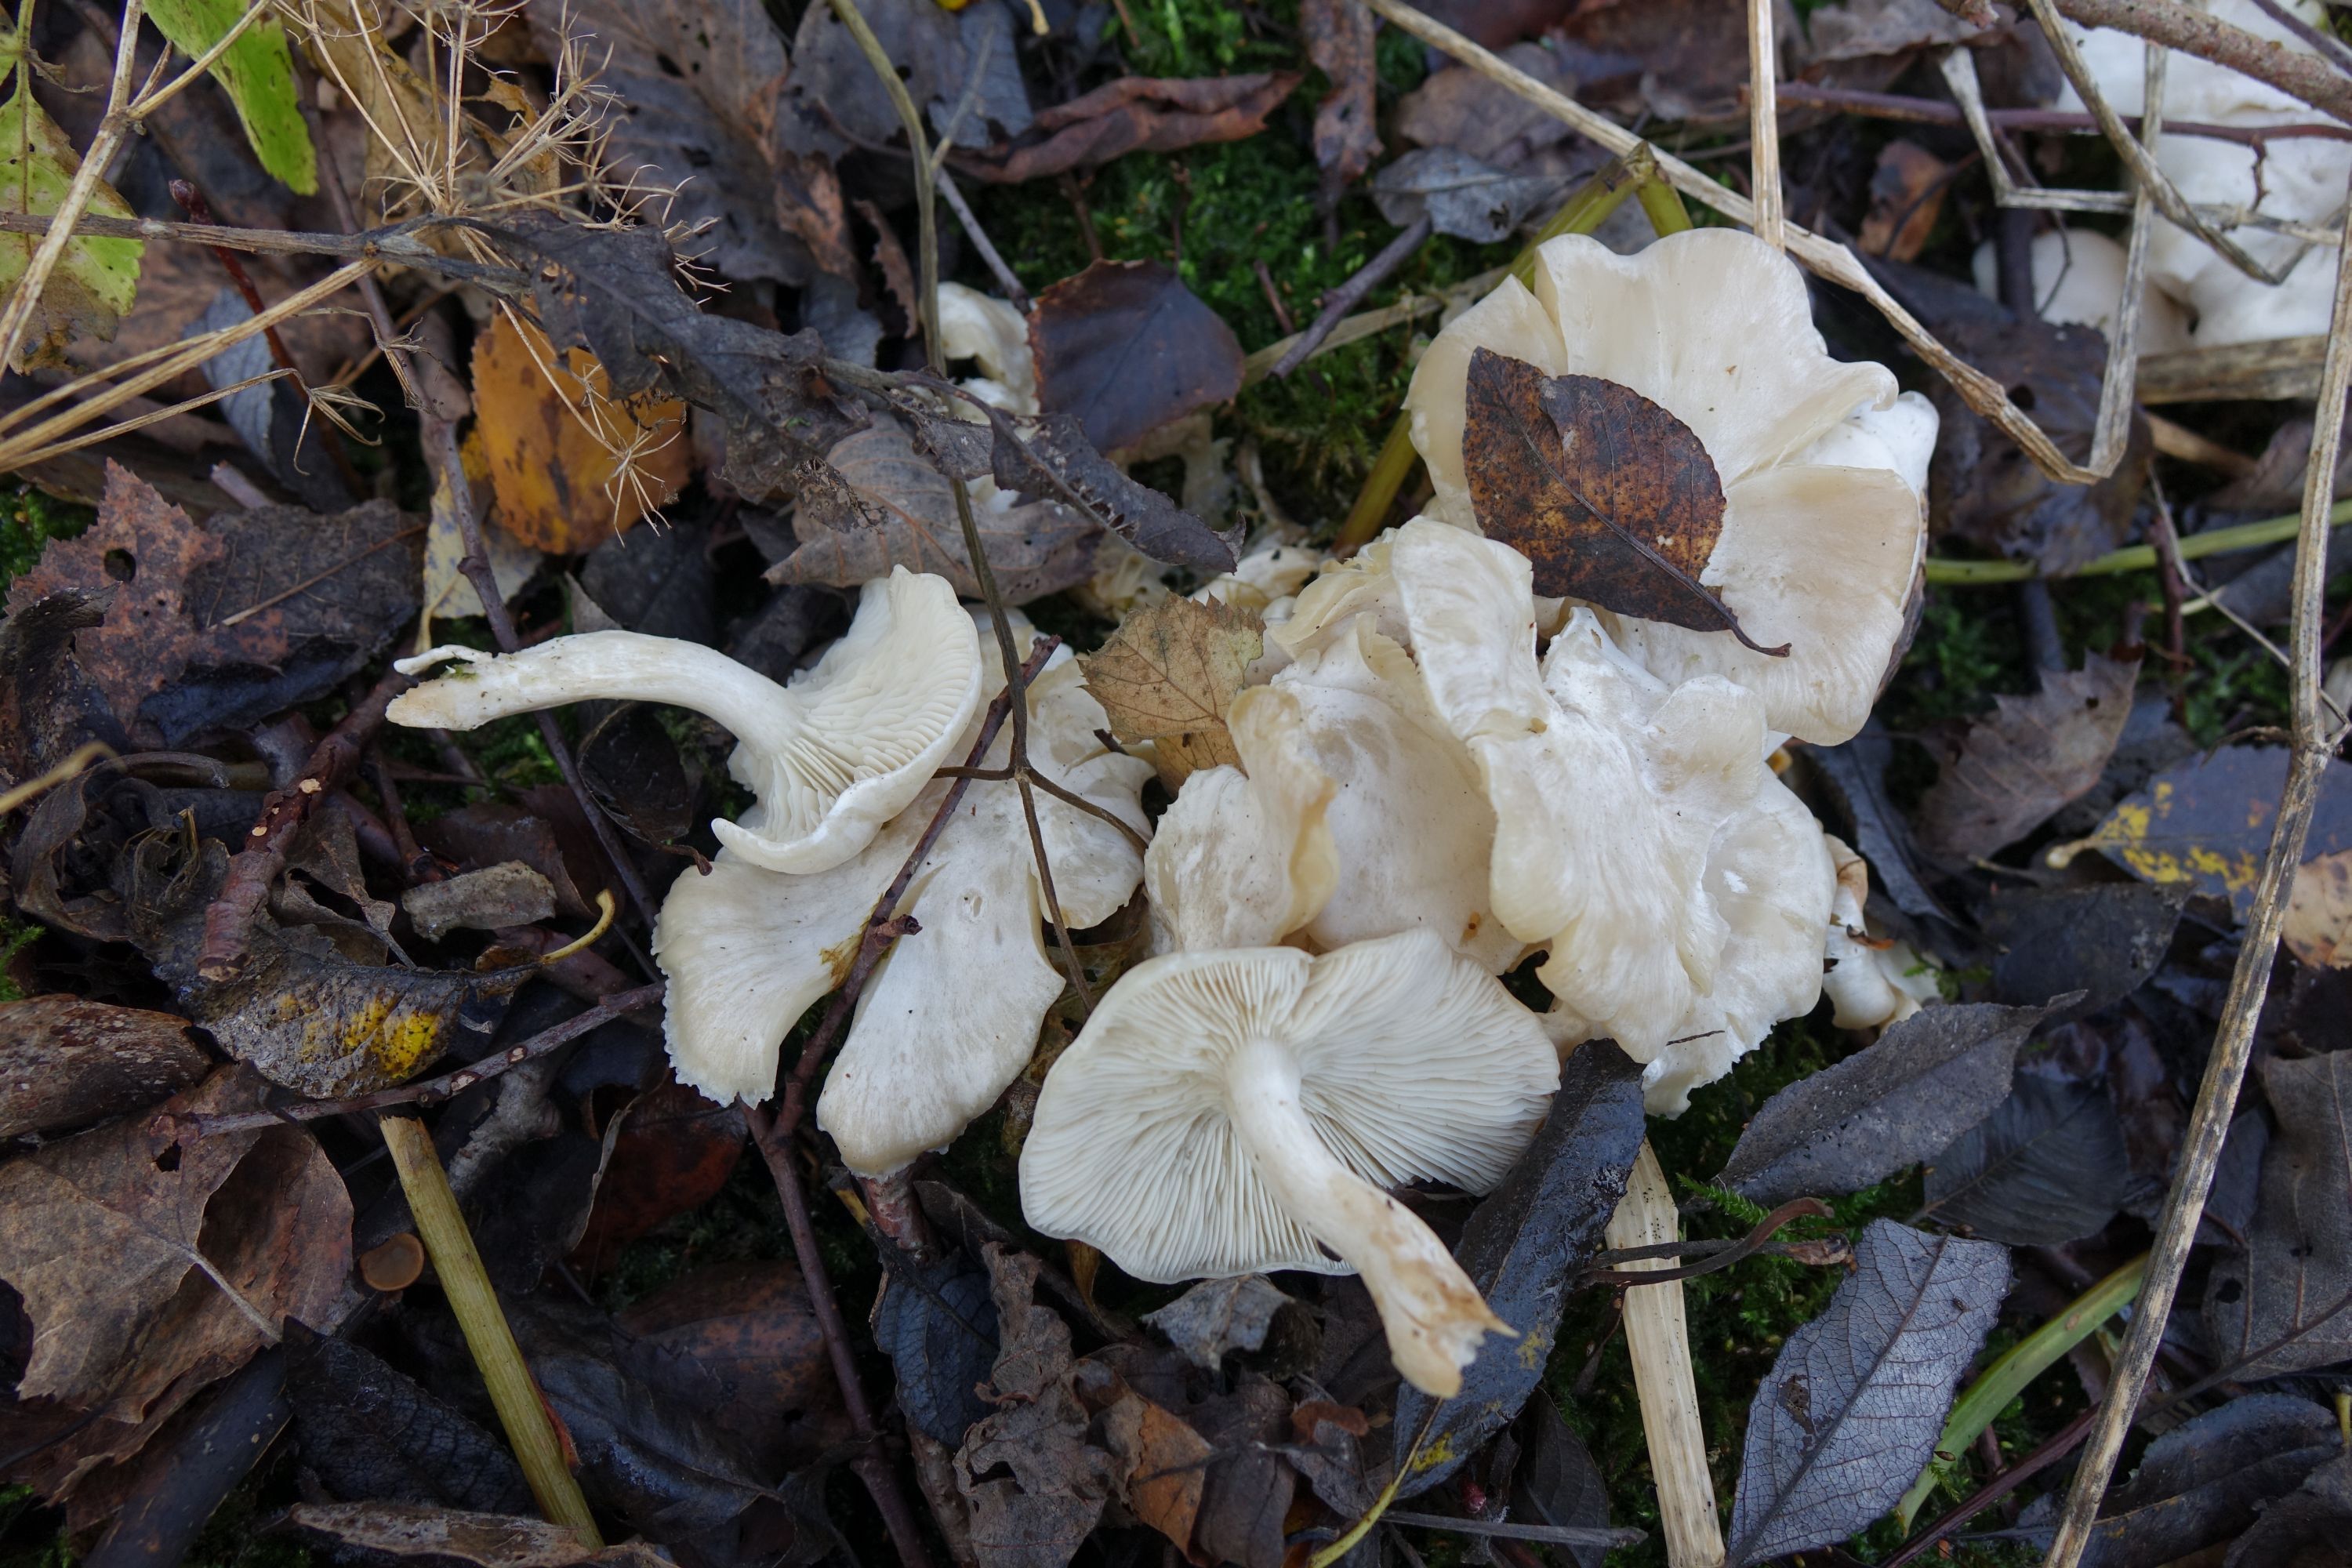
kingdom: Fungi
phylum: Basidiomycota
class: Agaricomycetes
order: Agaricales
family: Tricholomataceae
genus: Leucocybe
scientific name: Leucocybe connata
